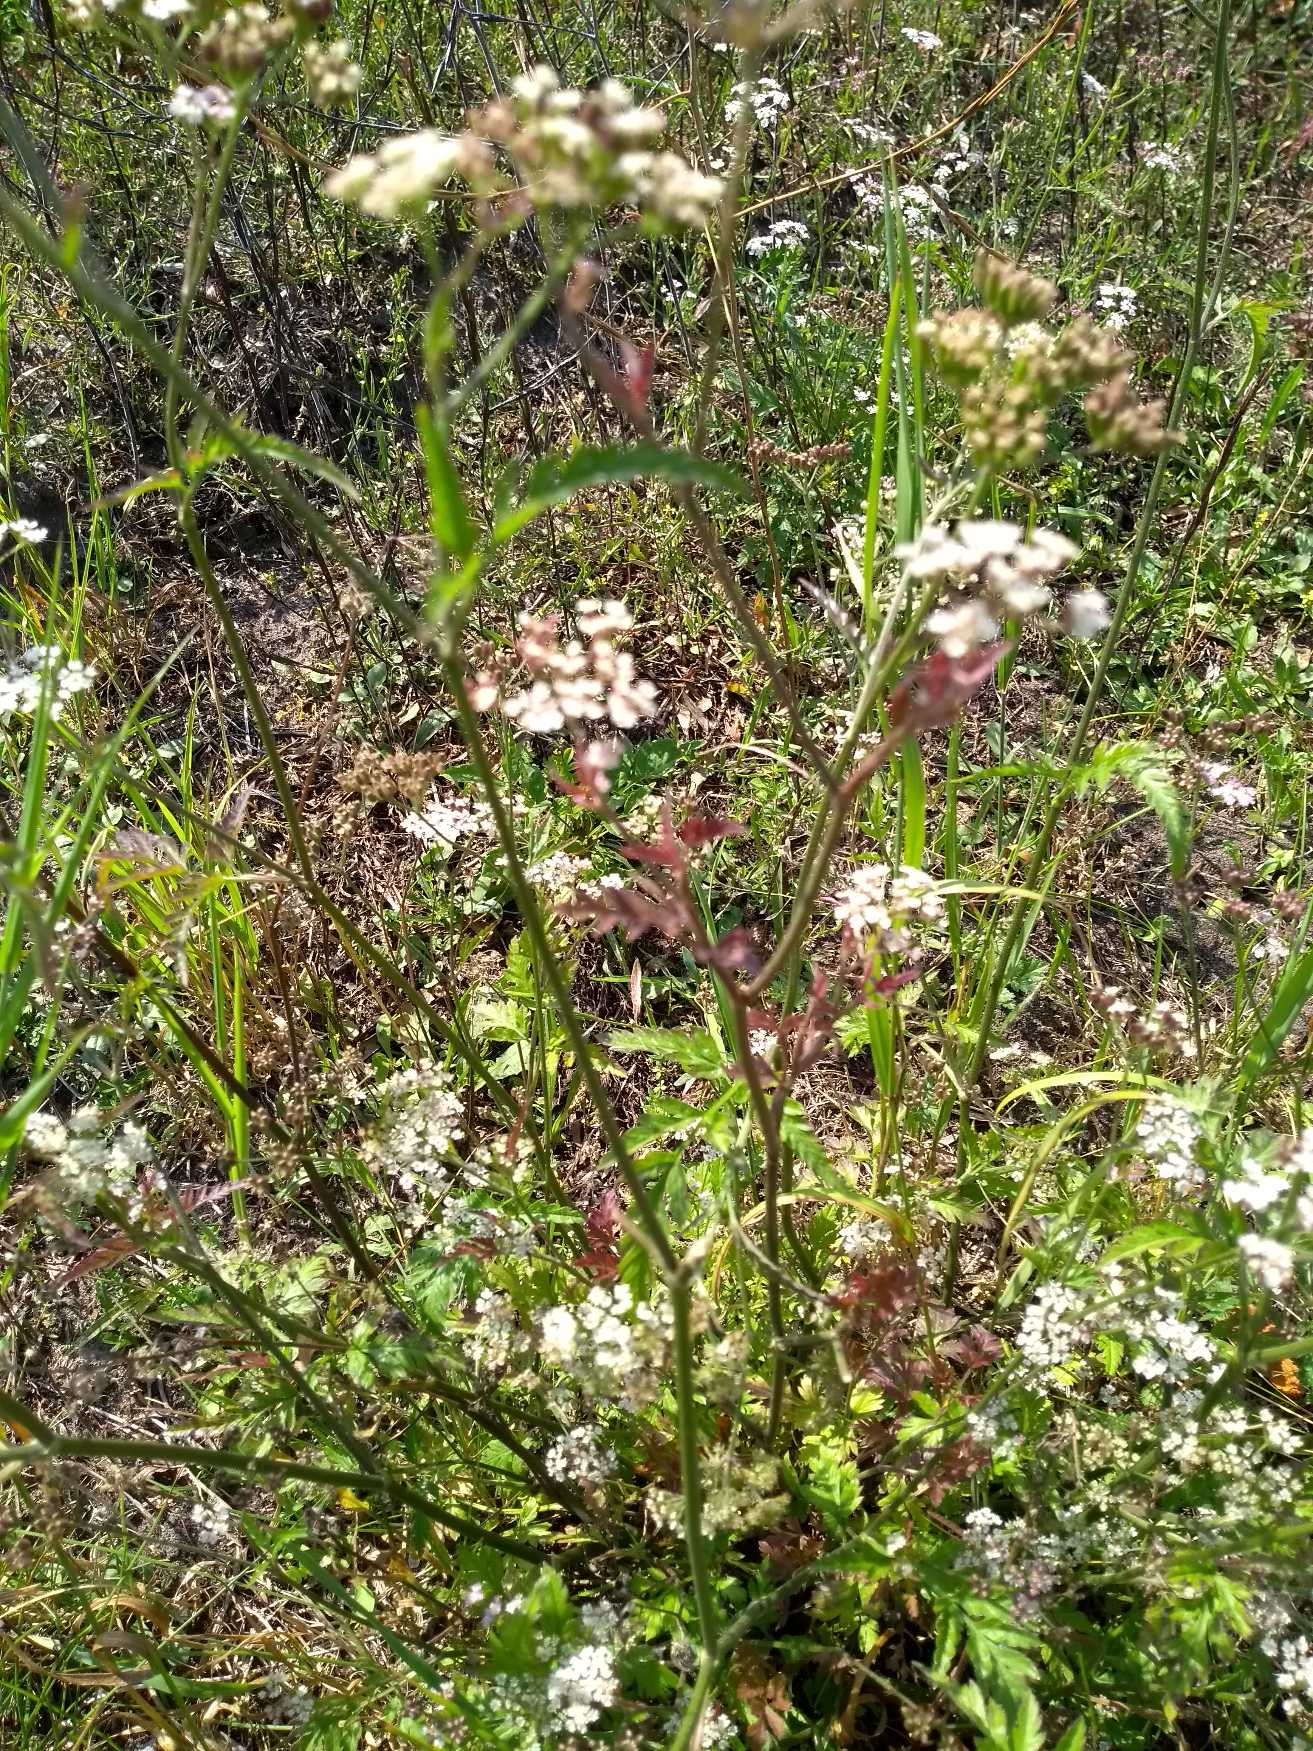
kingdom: Plantae
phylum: Tracheophyta
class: Magnoliopsida
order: Apiales
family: Apiaceae
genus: Torilis
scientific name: Torilis japonica
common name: Hvas randfrø
